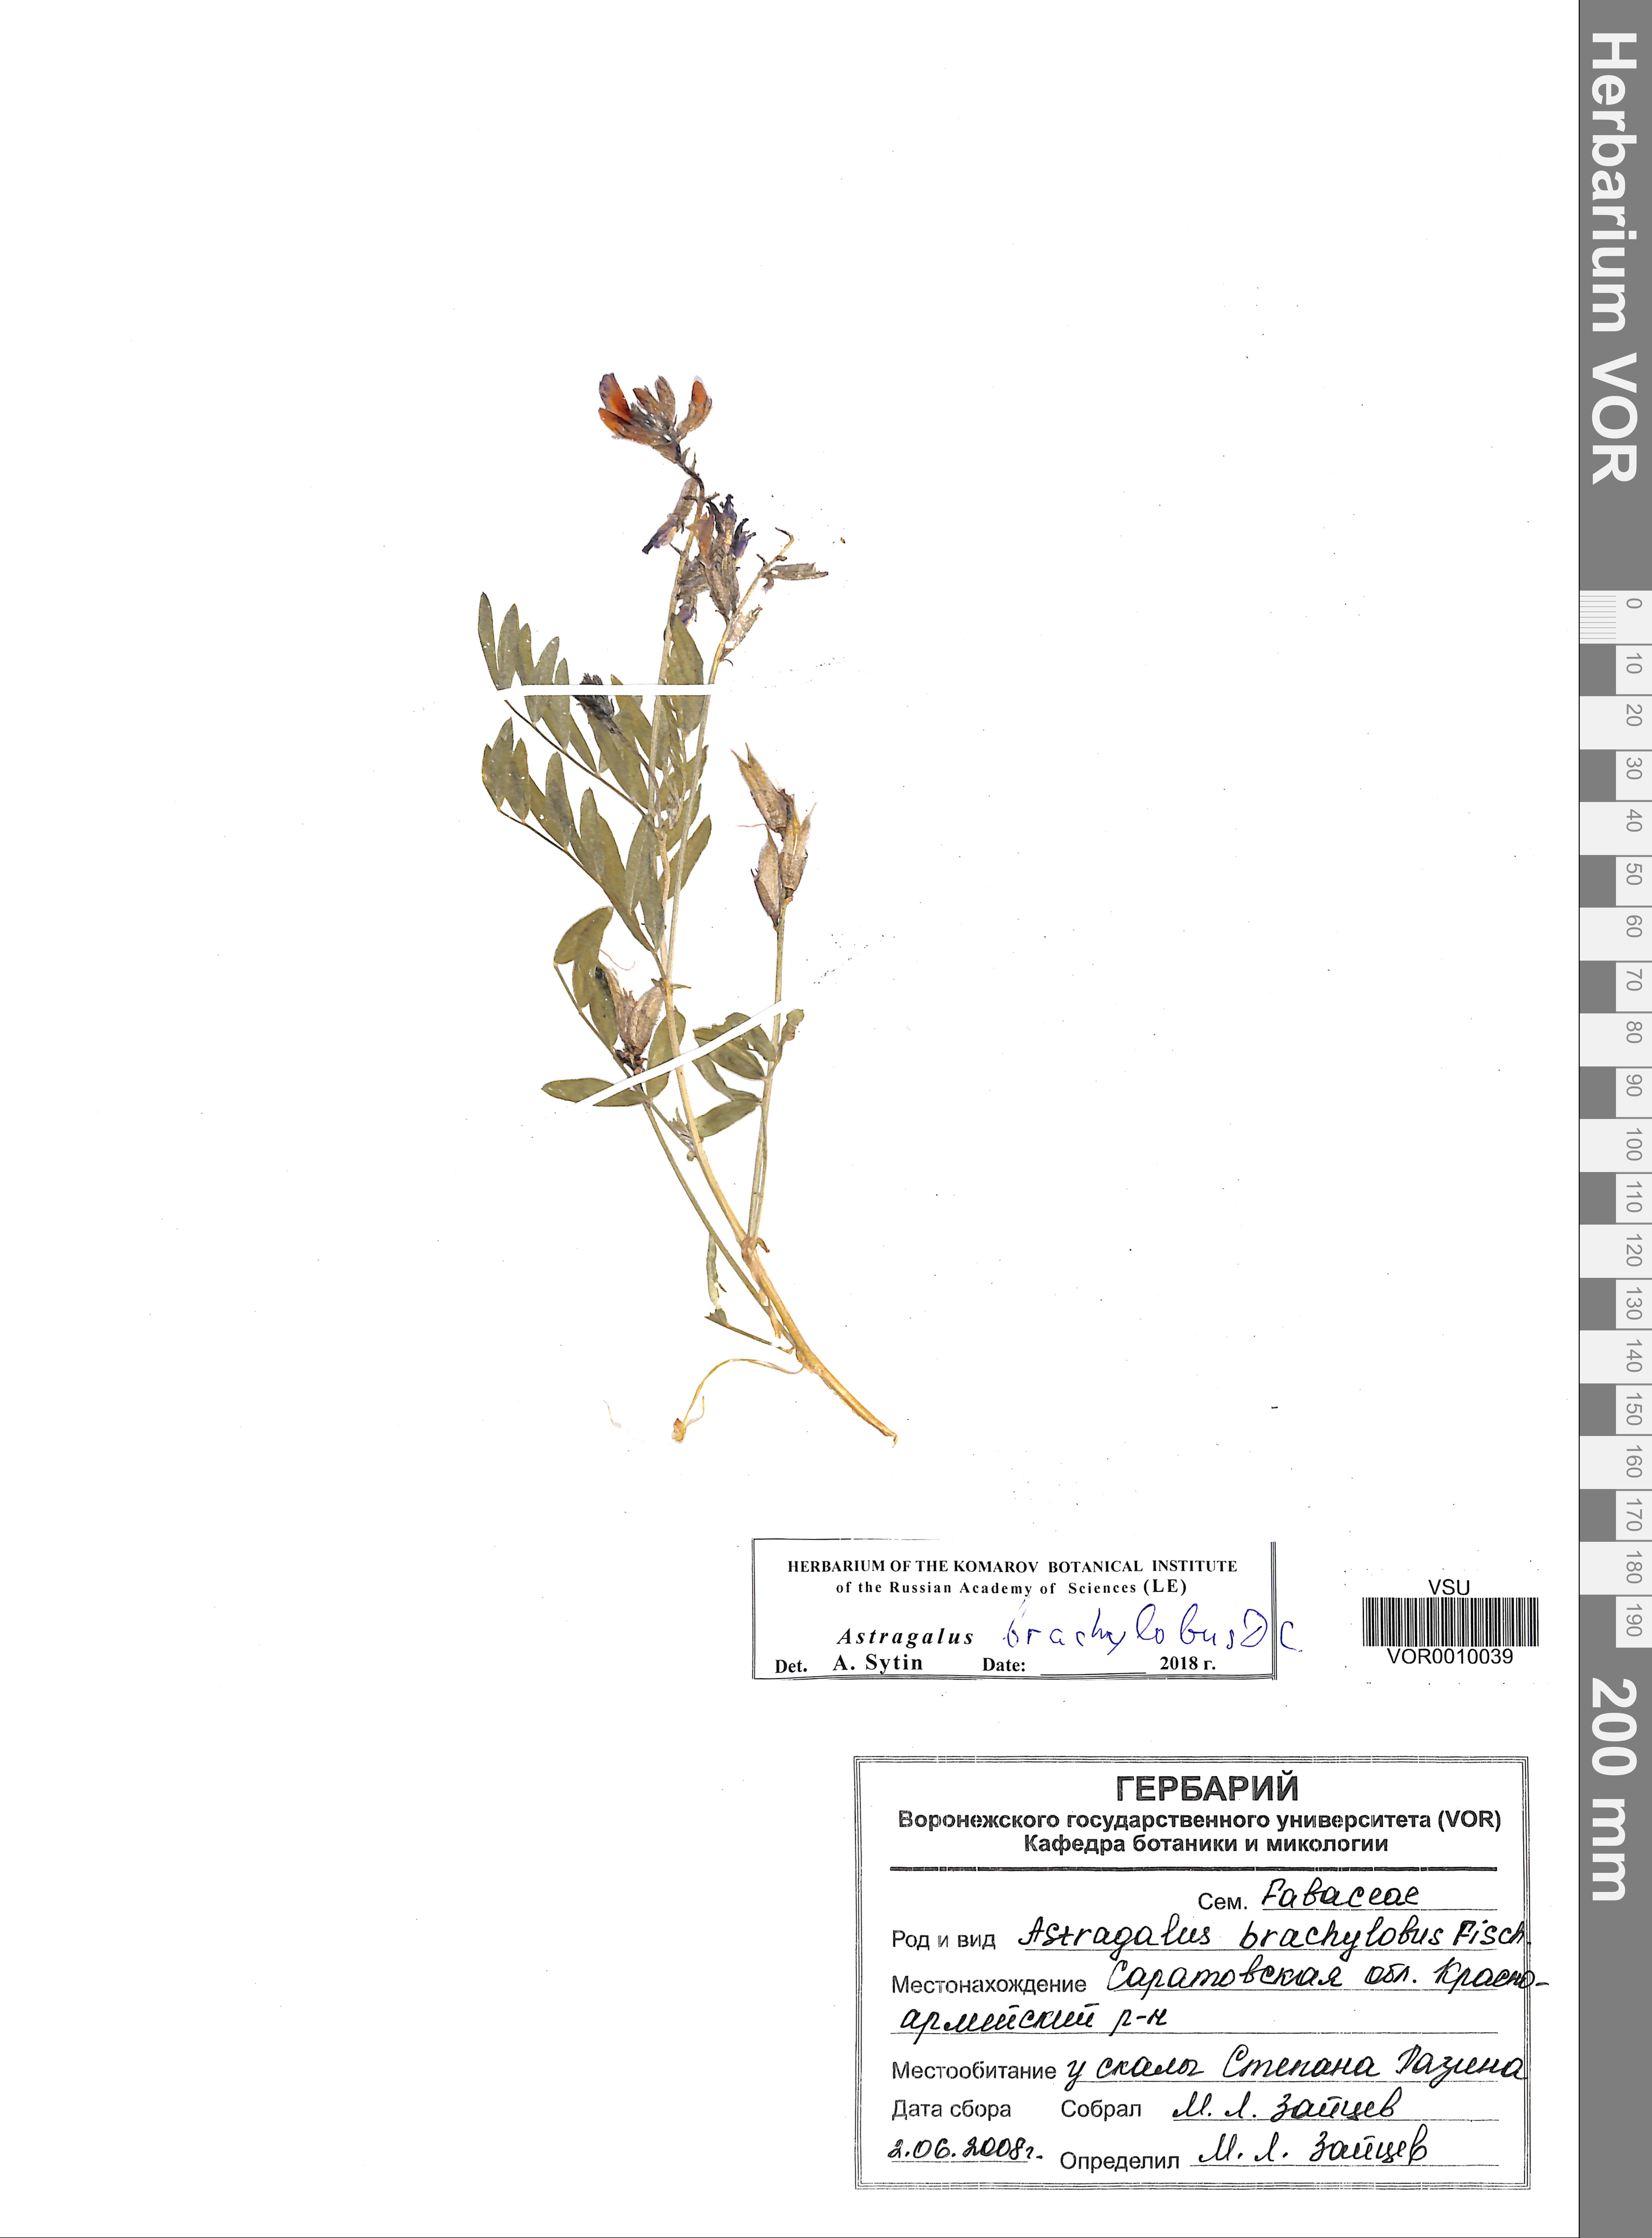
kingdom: Plantae
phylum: Tracheophyta
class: Magnoliopsida
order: Fabales
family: Fabaceae
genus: Astragalus
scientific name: Astragalus brachylobus
